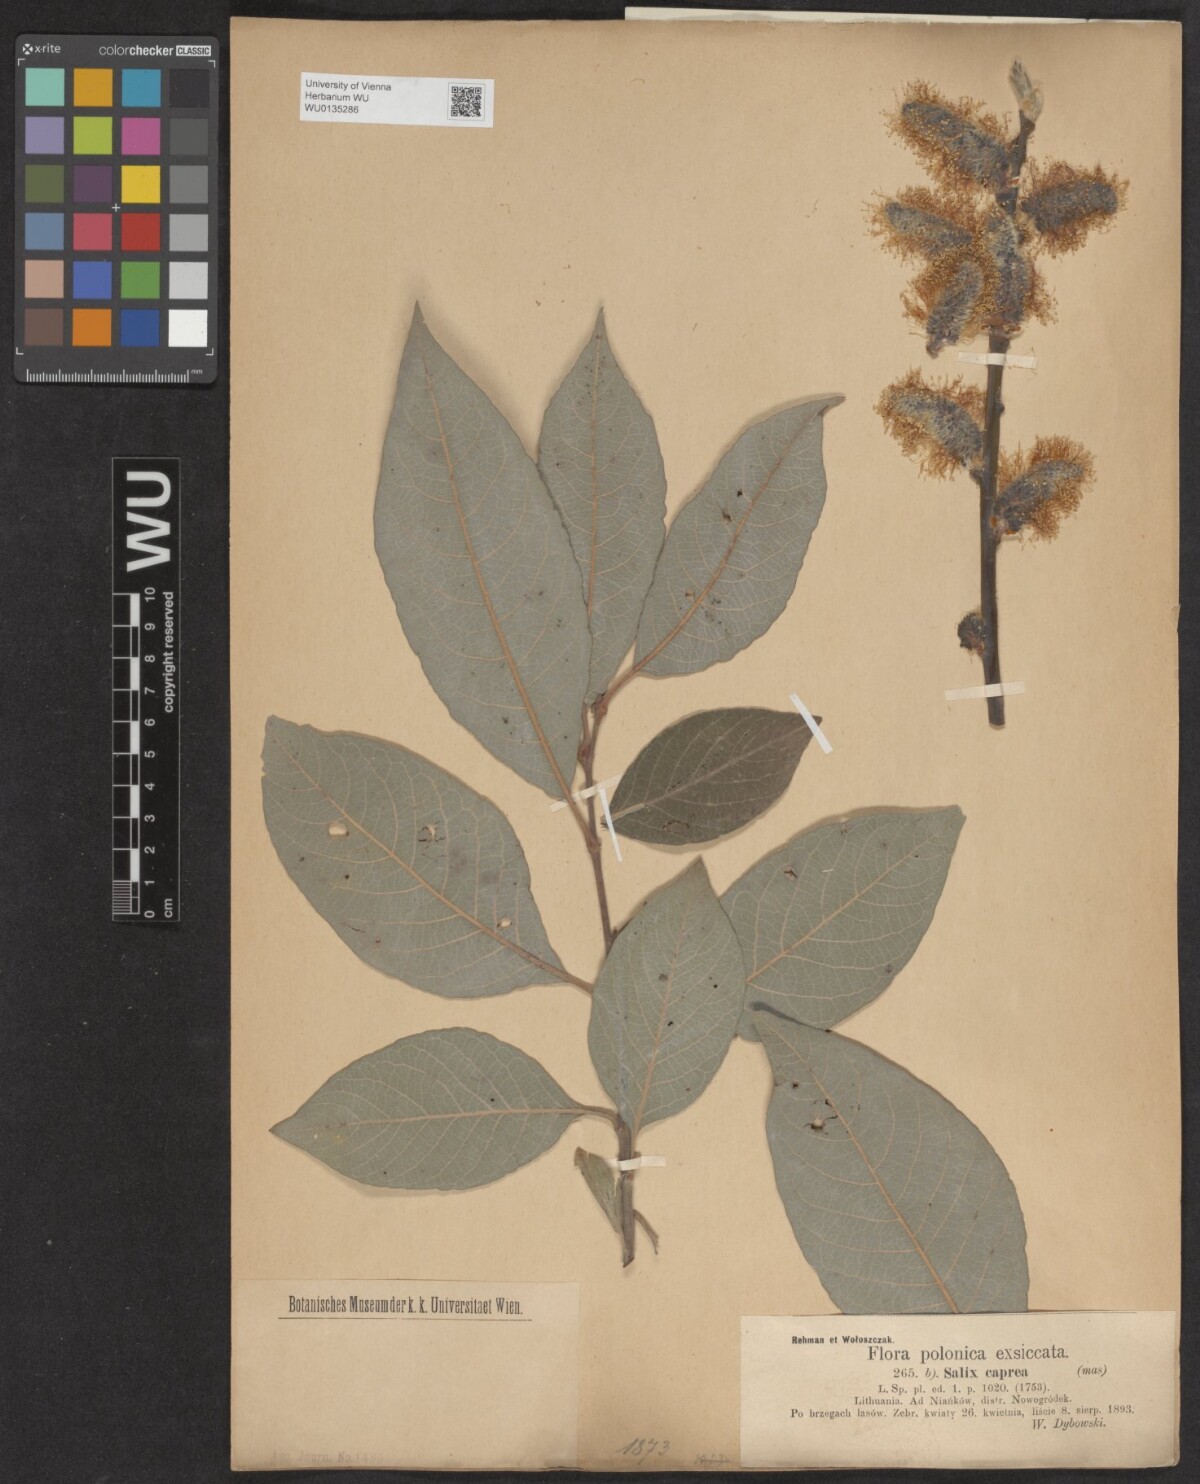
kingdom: Plantae
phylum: Tracheophyta
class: Magnoliopsida
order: Malpighiales
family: Salicaceae
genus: Salix
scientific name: Salix caprea
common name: Goat willow
